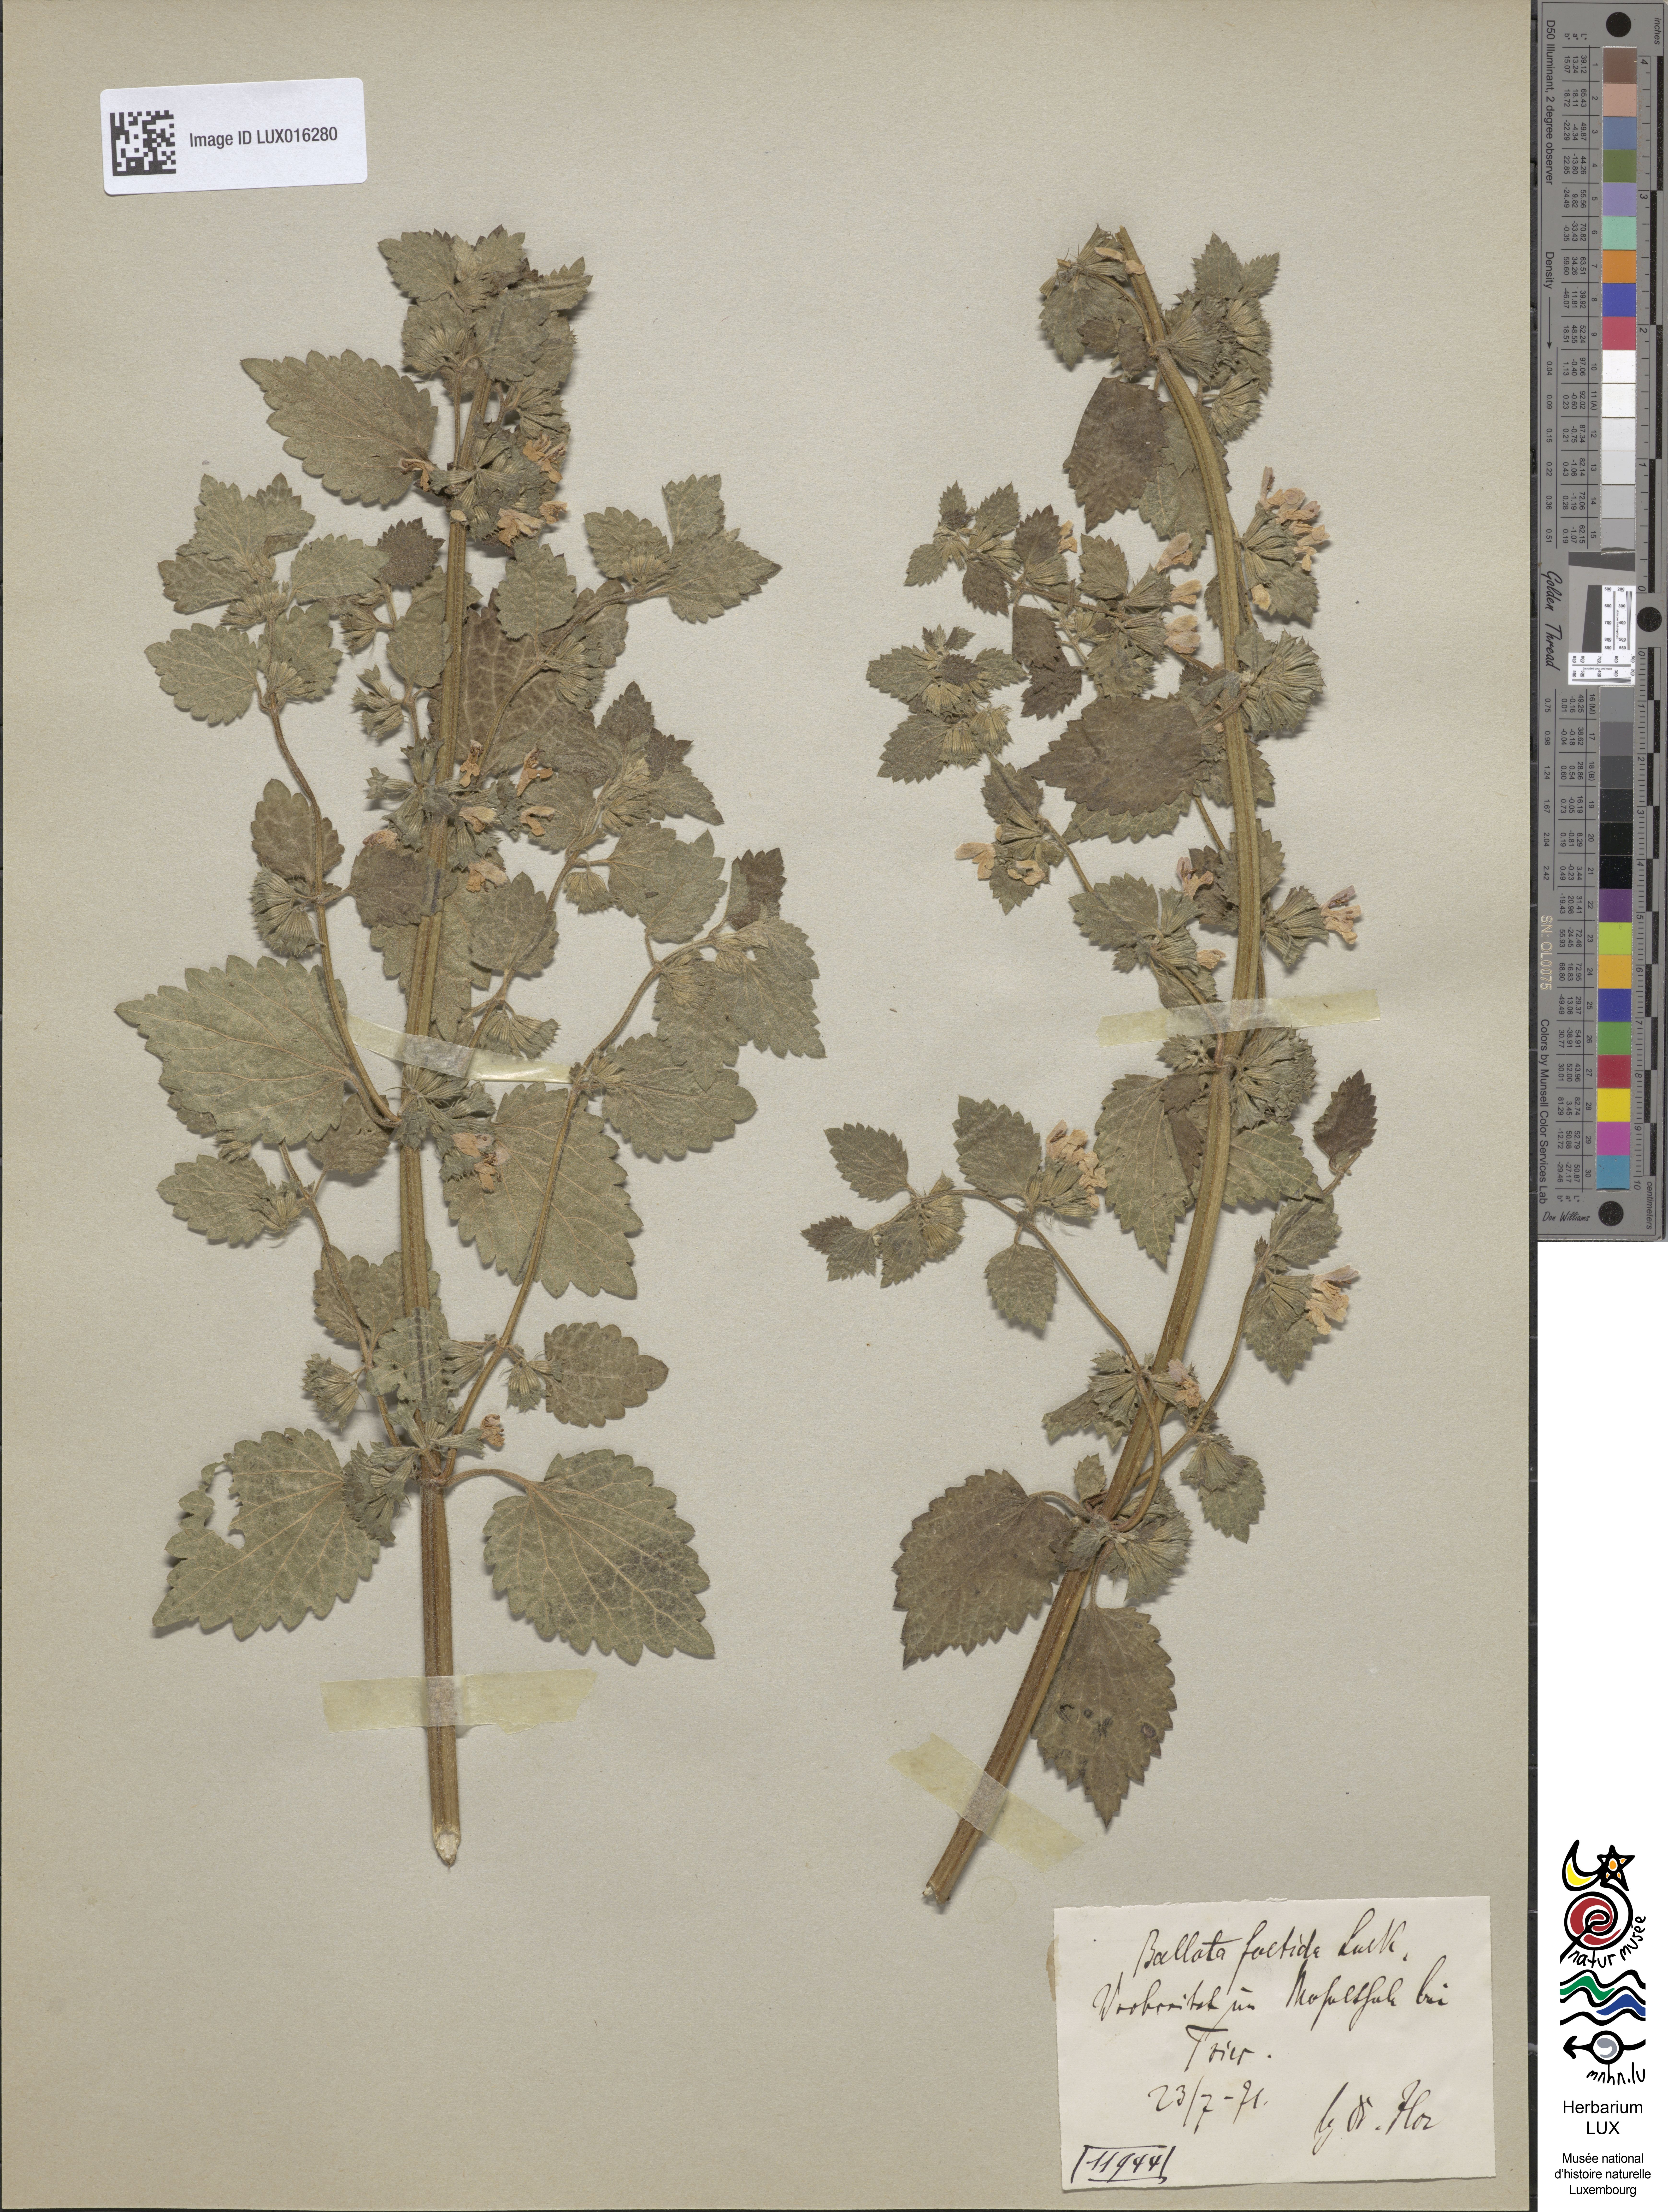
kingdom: Plantae
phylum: Tracheophyta
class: Magnoliopsida
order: Lamiales
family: Lamiaceae
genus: Ballota
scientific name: Ballota nigra
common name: Black horehound
